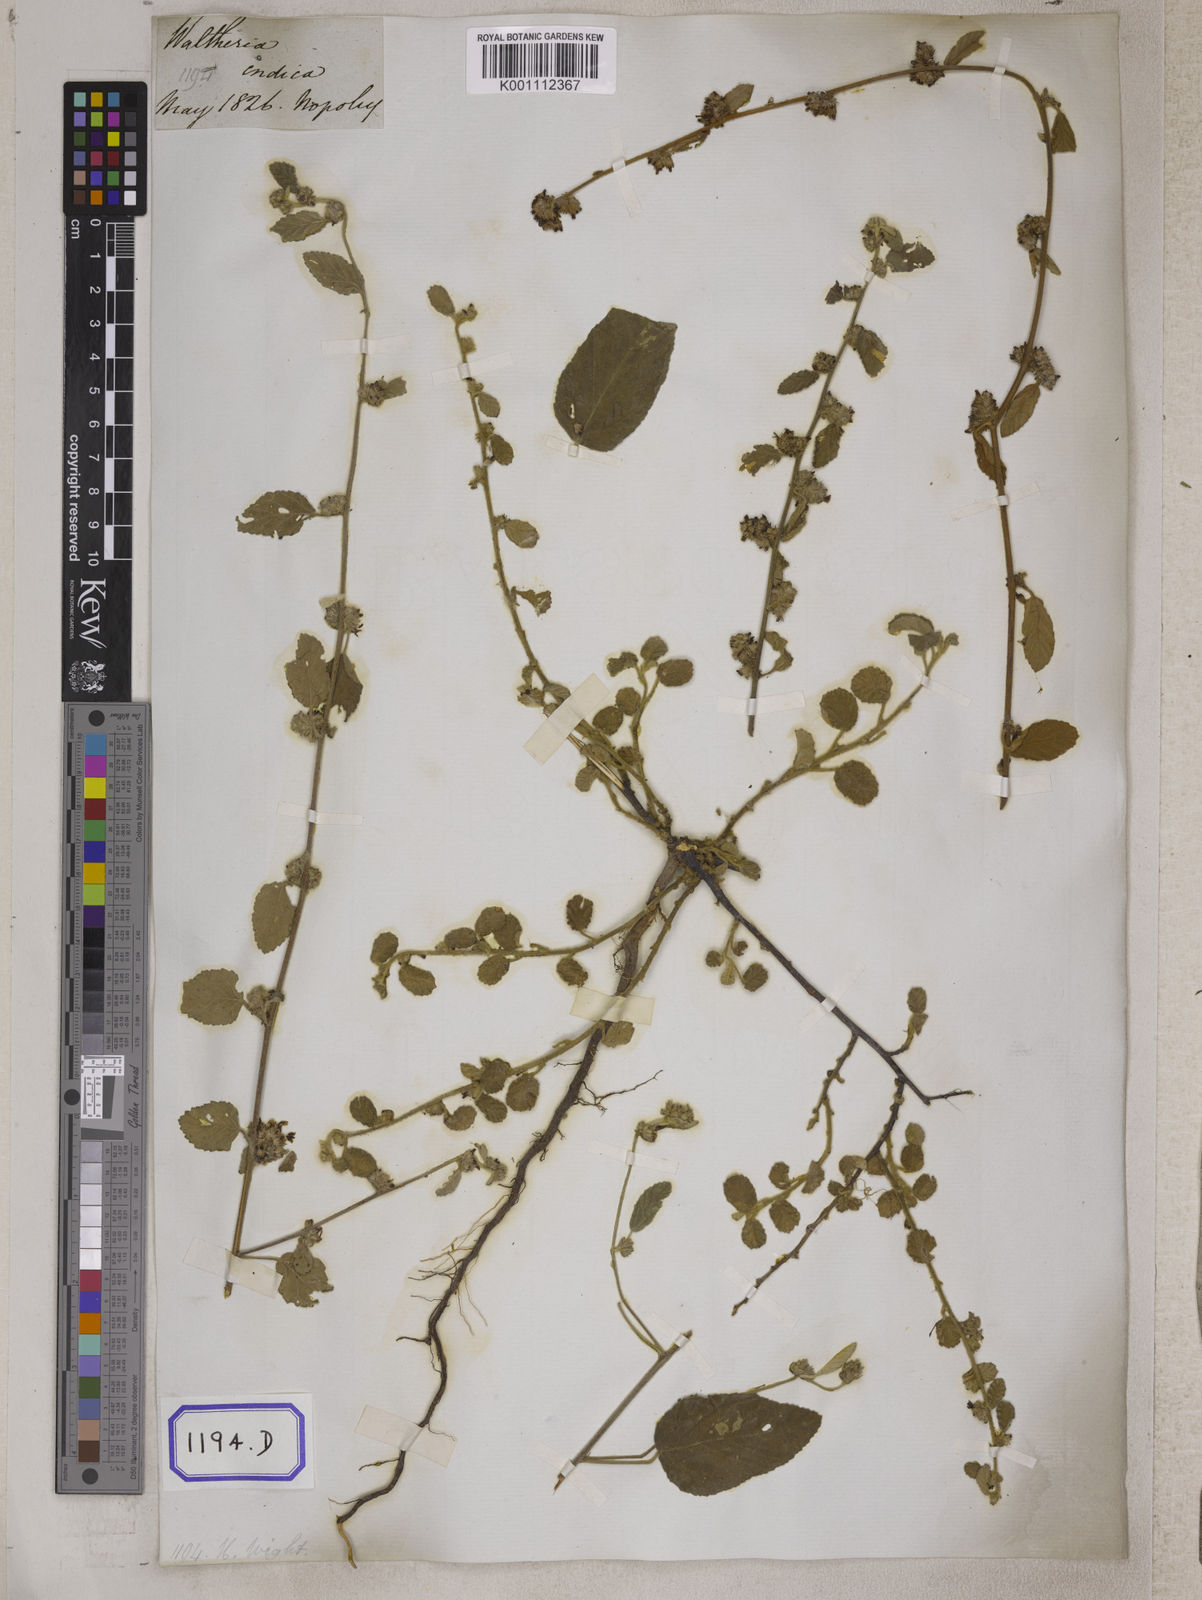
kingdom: Plantae
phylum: Tracheophyta
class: Magnoliopsida
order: Malvales
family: Malvaceae
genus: Waltheria
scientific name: Waltheria indica
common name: Leather-coat
